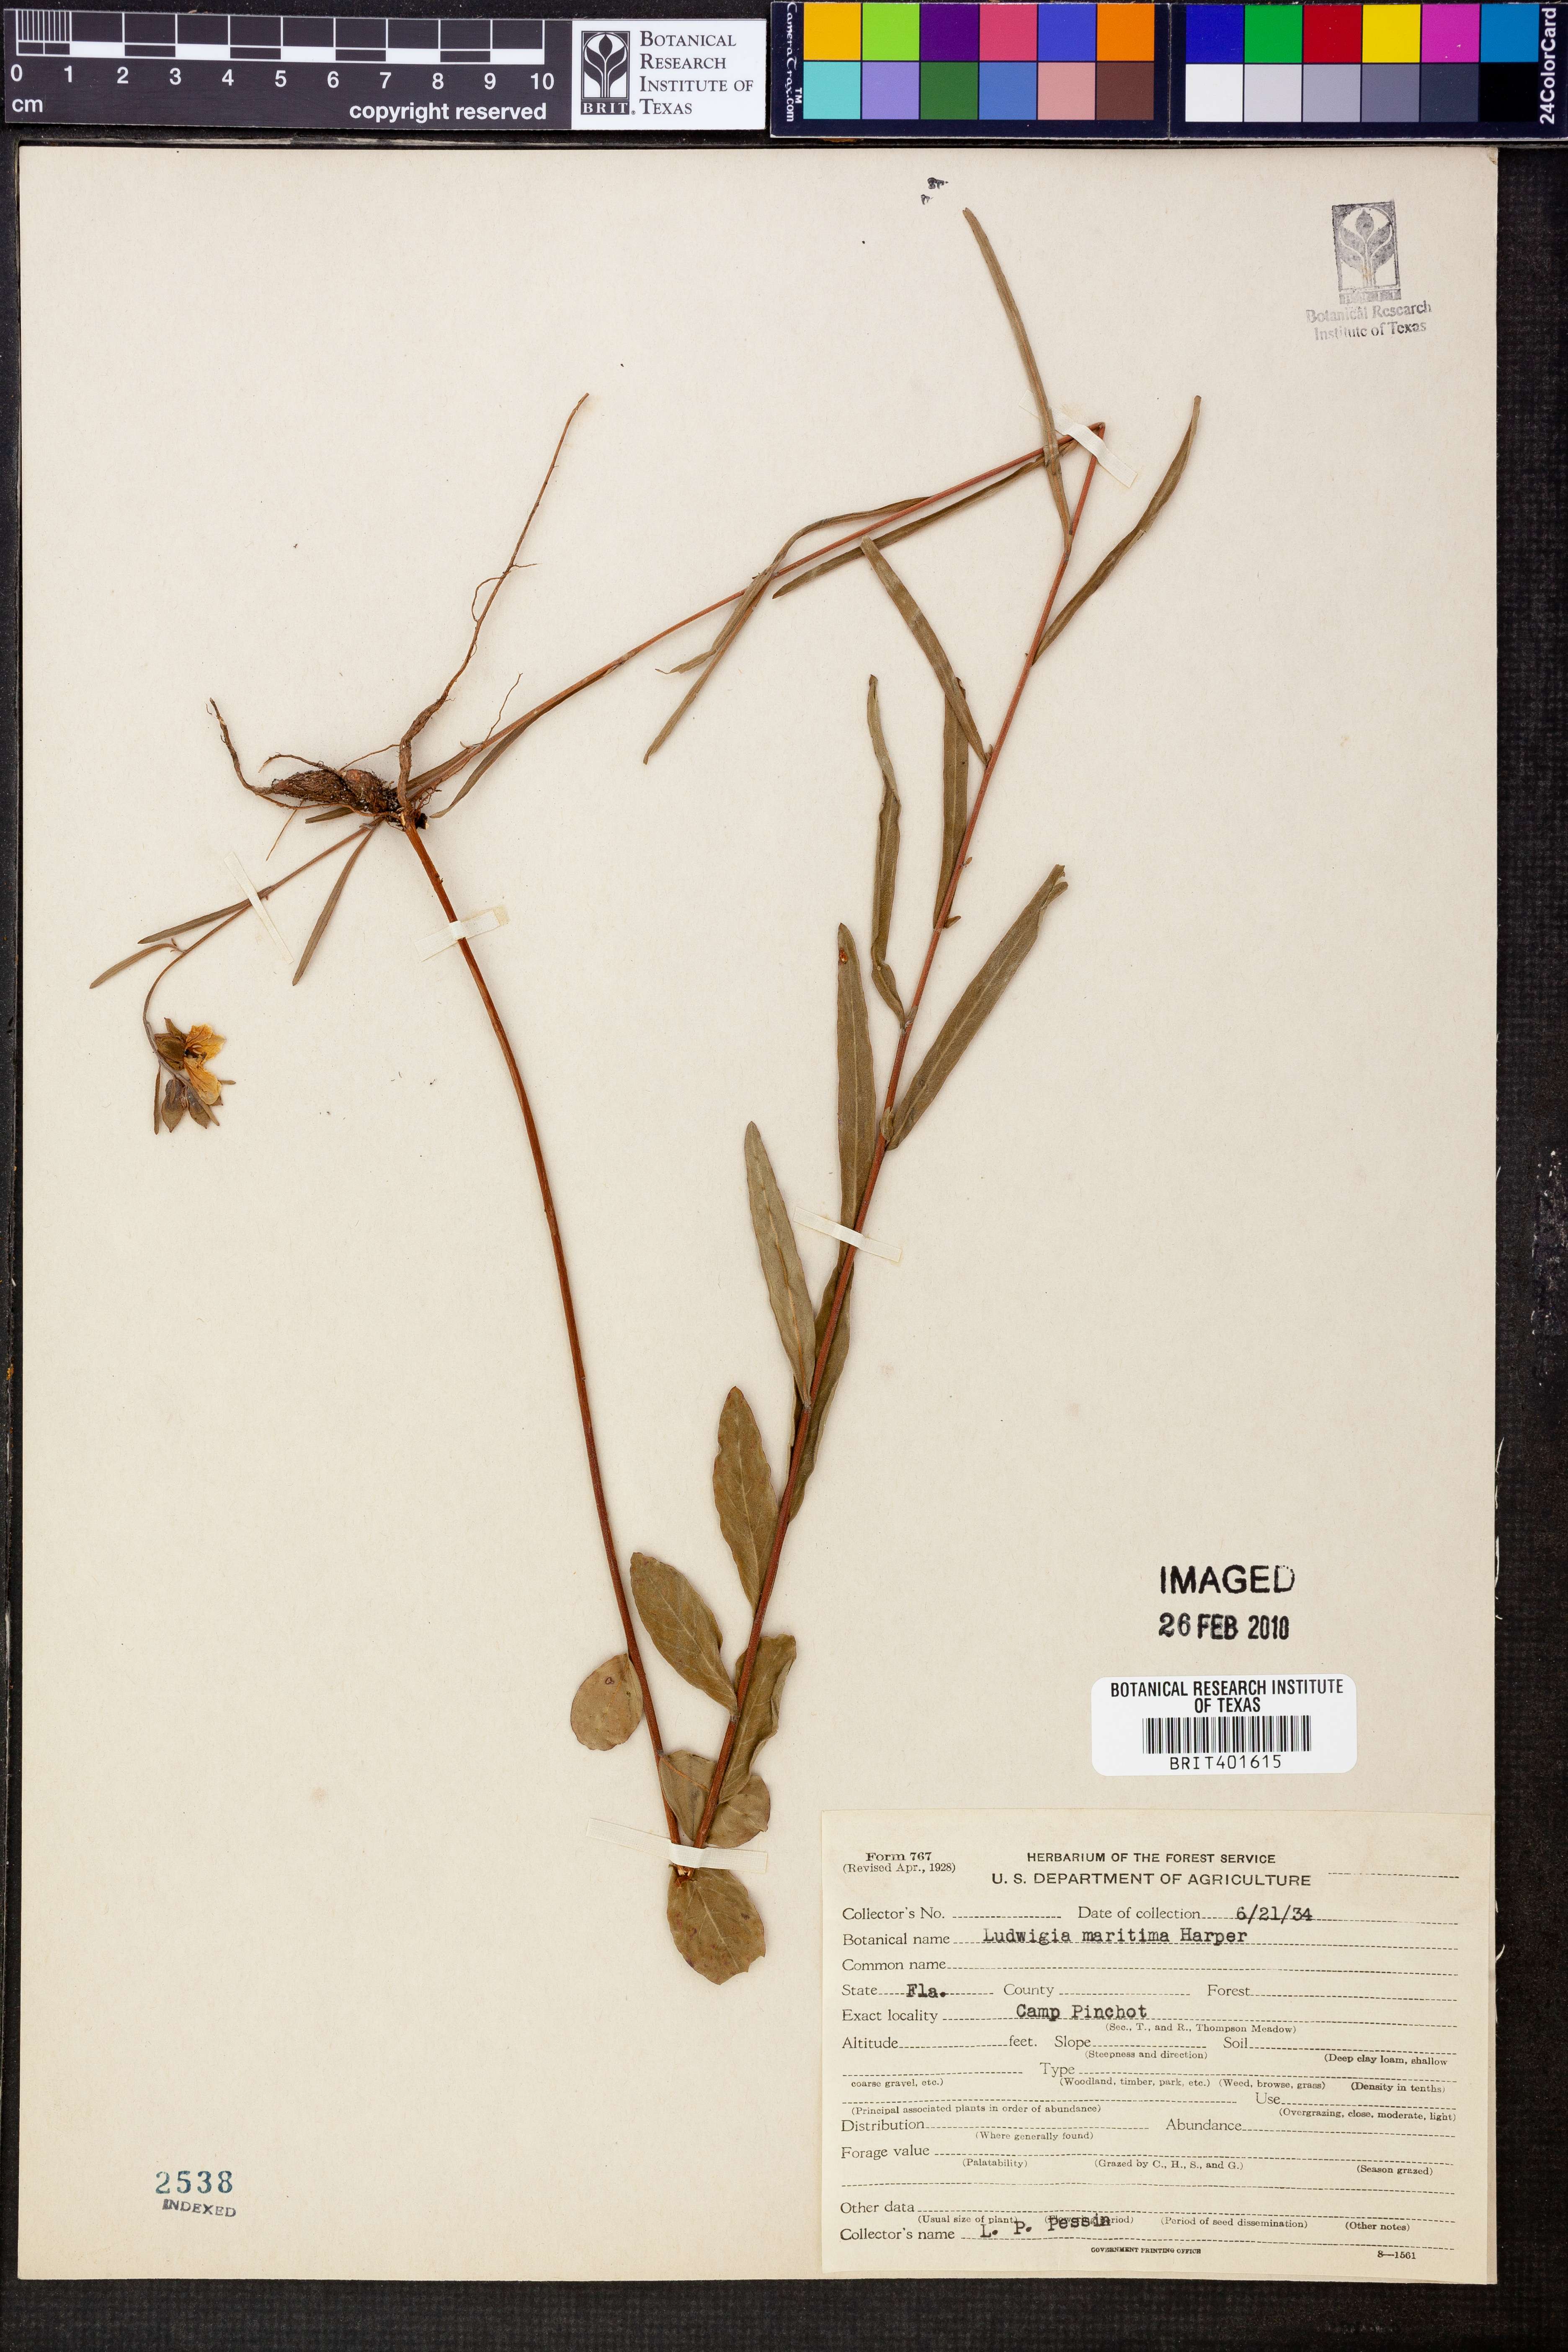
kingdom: Plantae
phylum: Tracheophyta
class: Magnoliopsida
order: Myrtales
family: Onagraceae
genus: Ludwigia
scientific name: Ludwigia maritima
